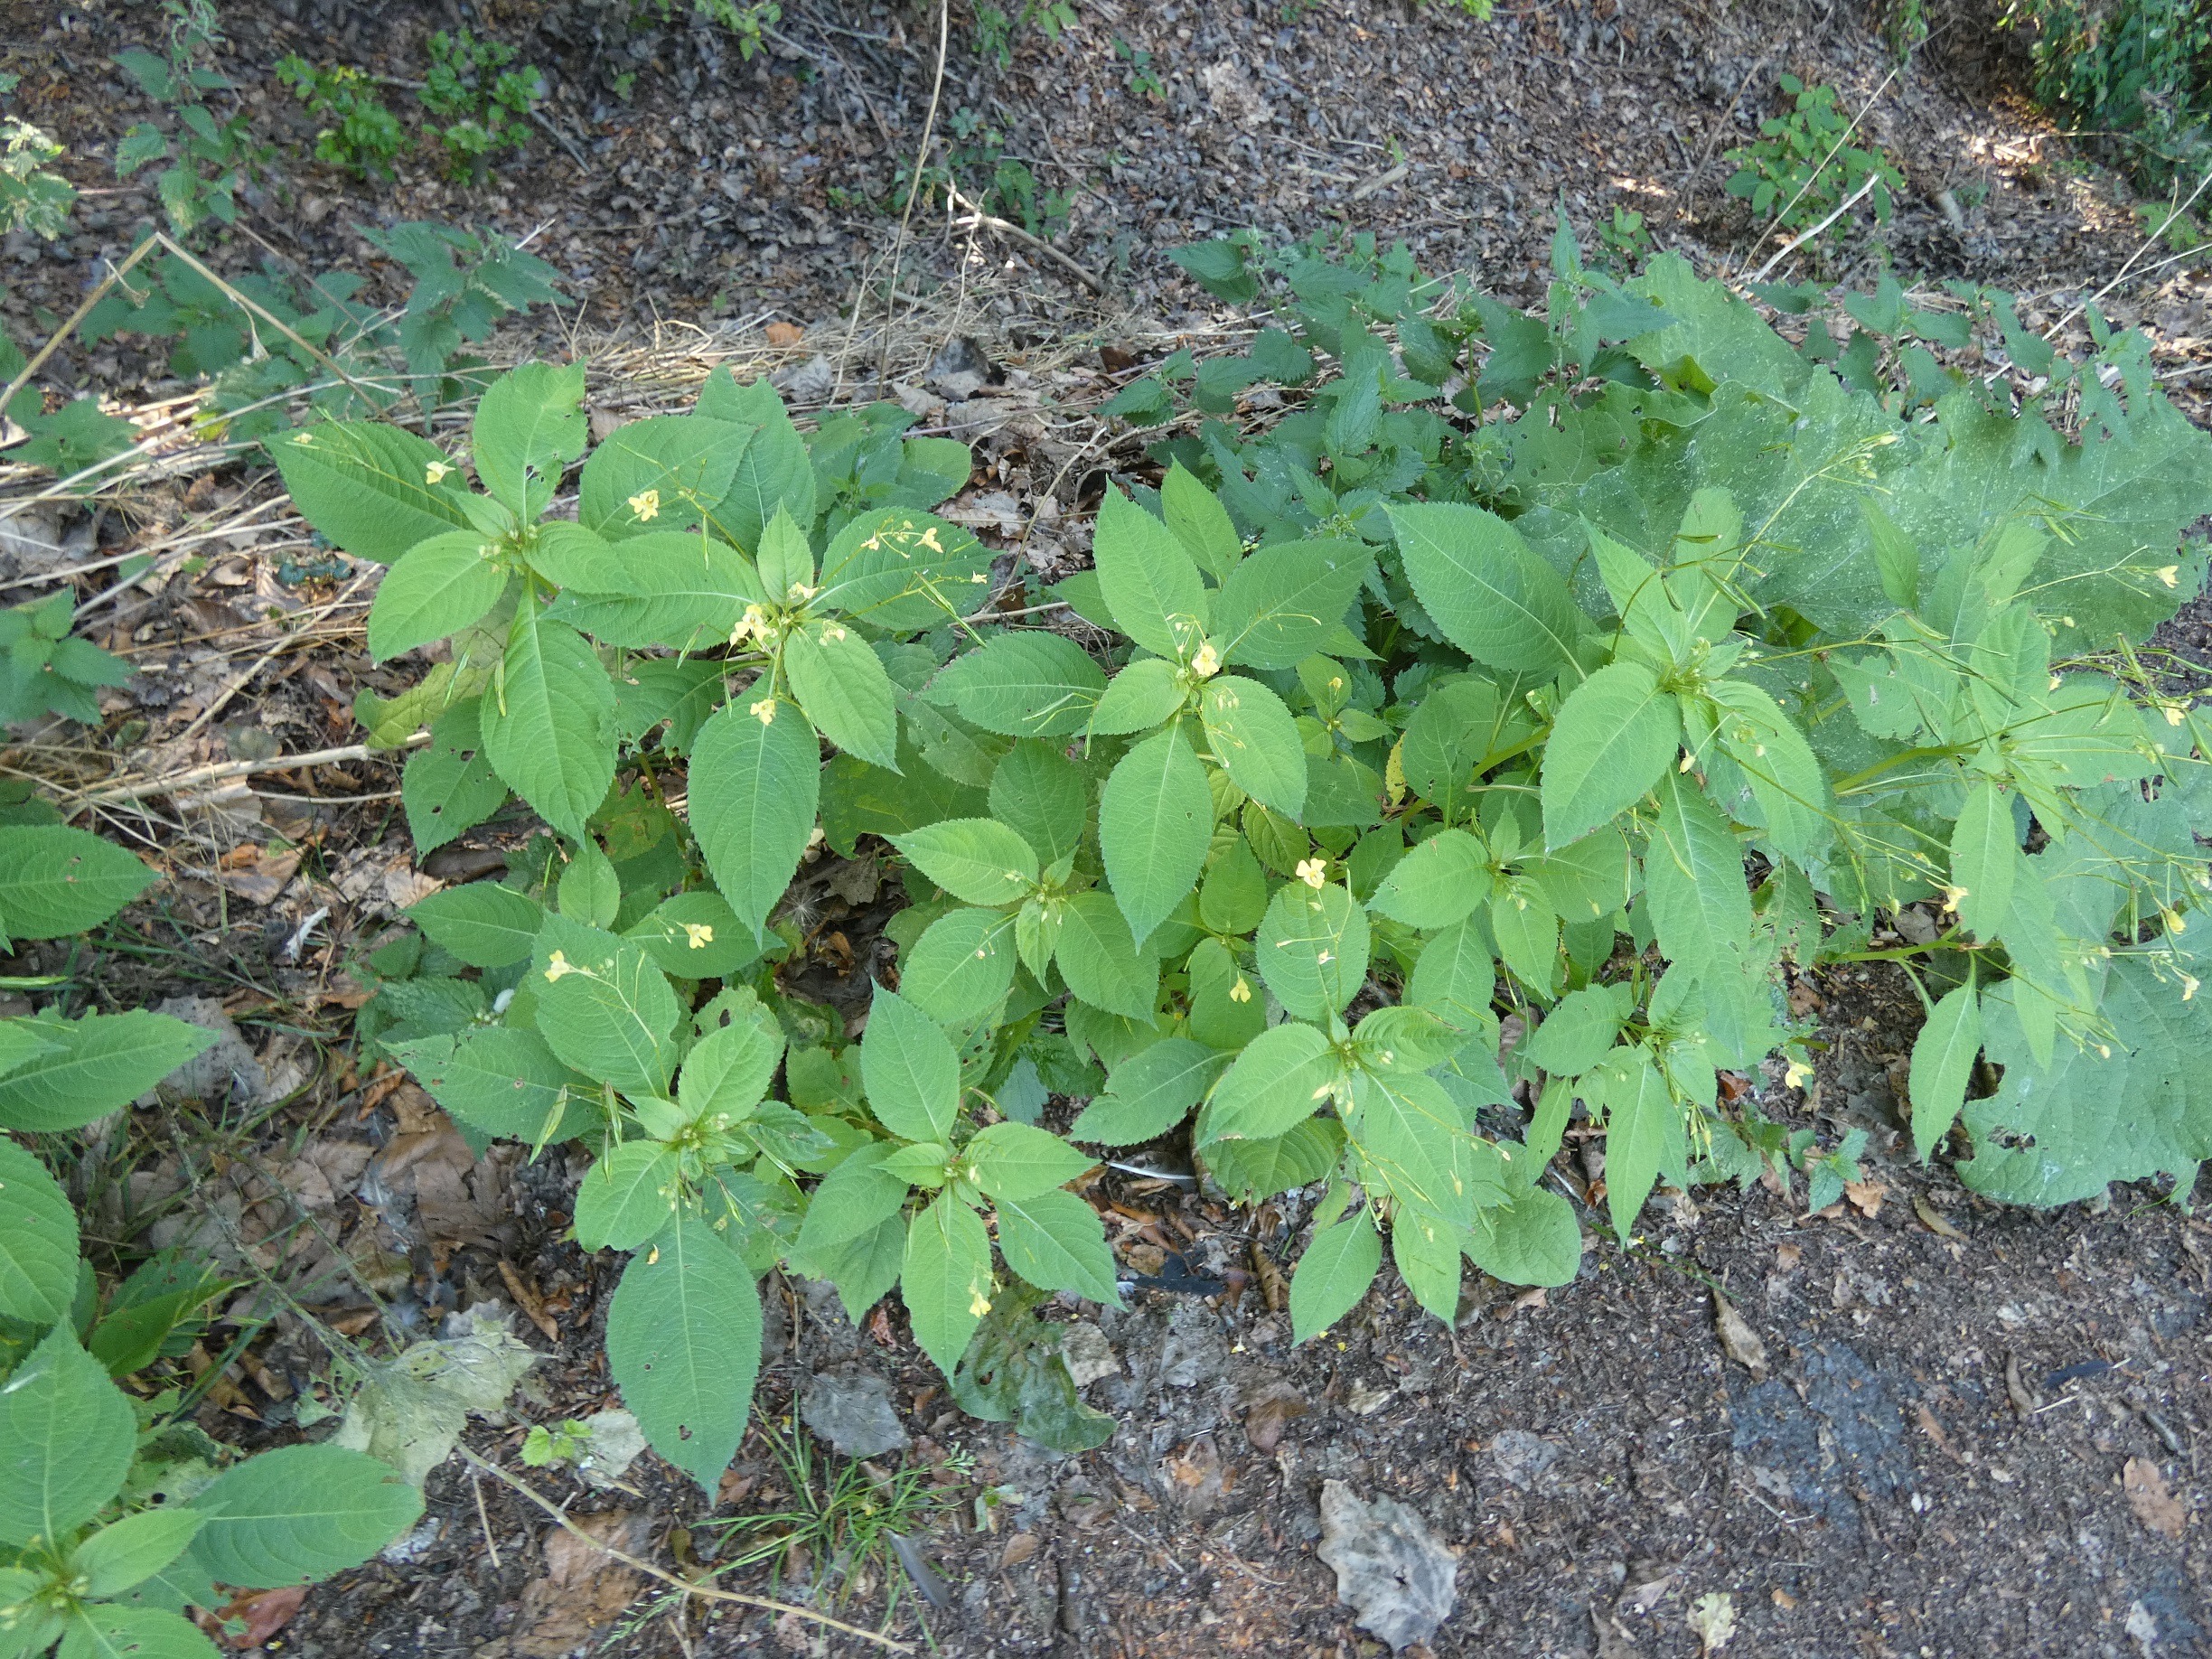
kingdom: Plantae
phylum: Tracheophyta
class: Magnoliopsida
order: Ericales
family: Balsaminaceae
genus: Impatiens
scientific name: Impatiens parviflora
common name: Småblomstret balsamin
